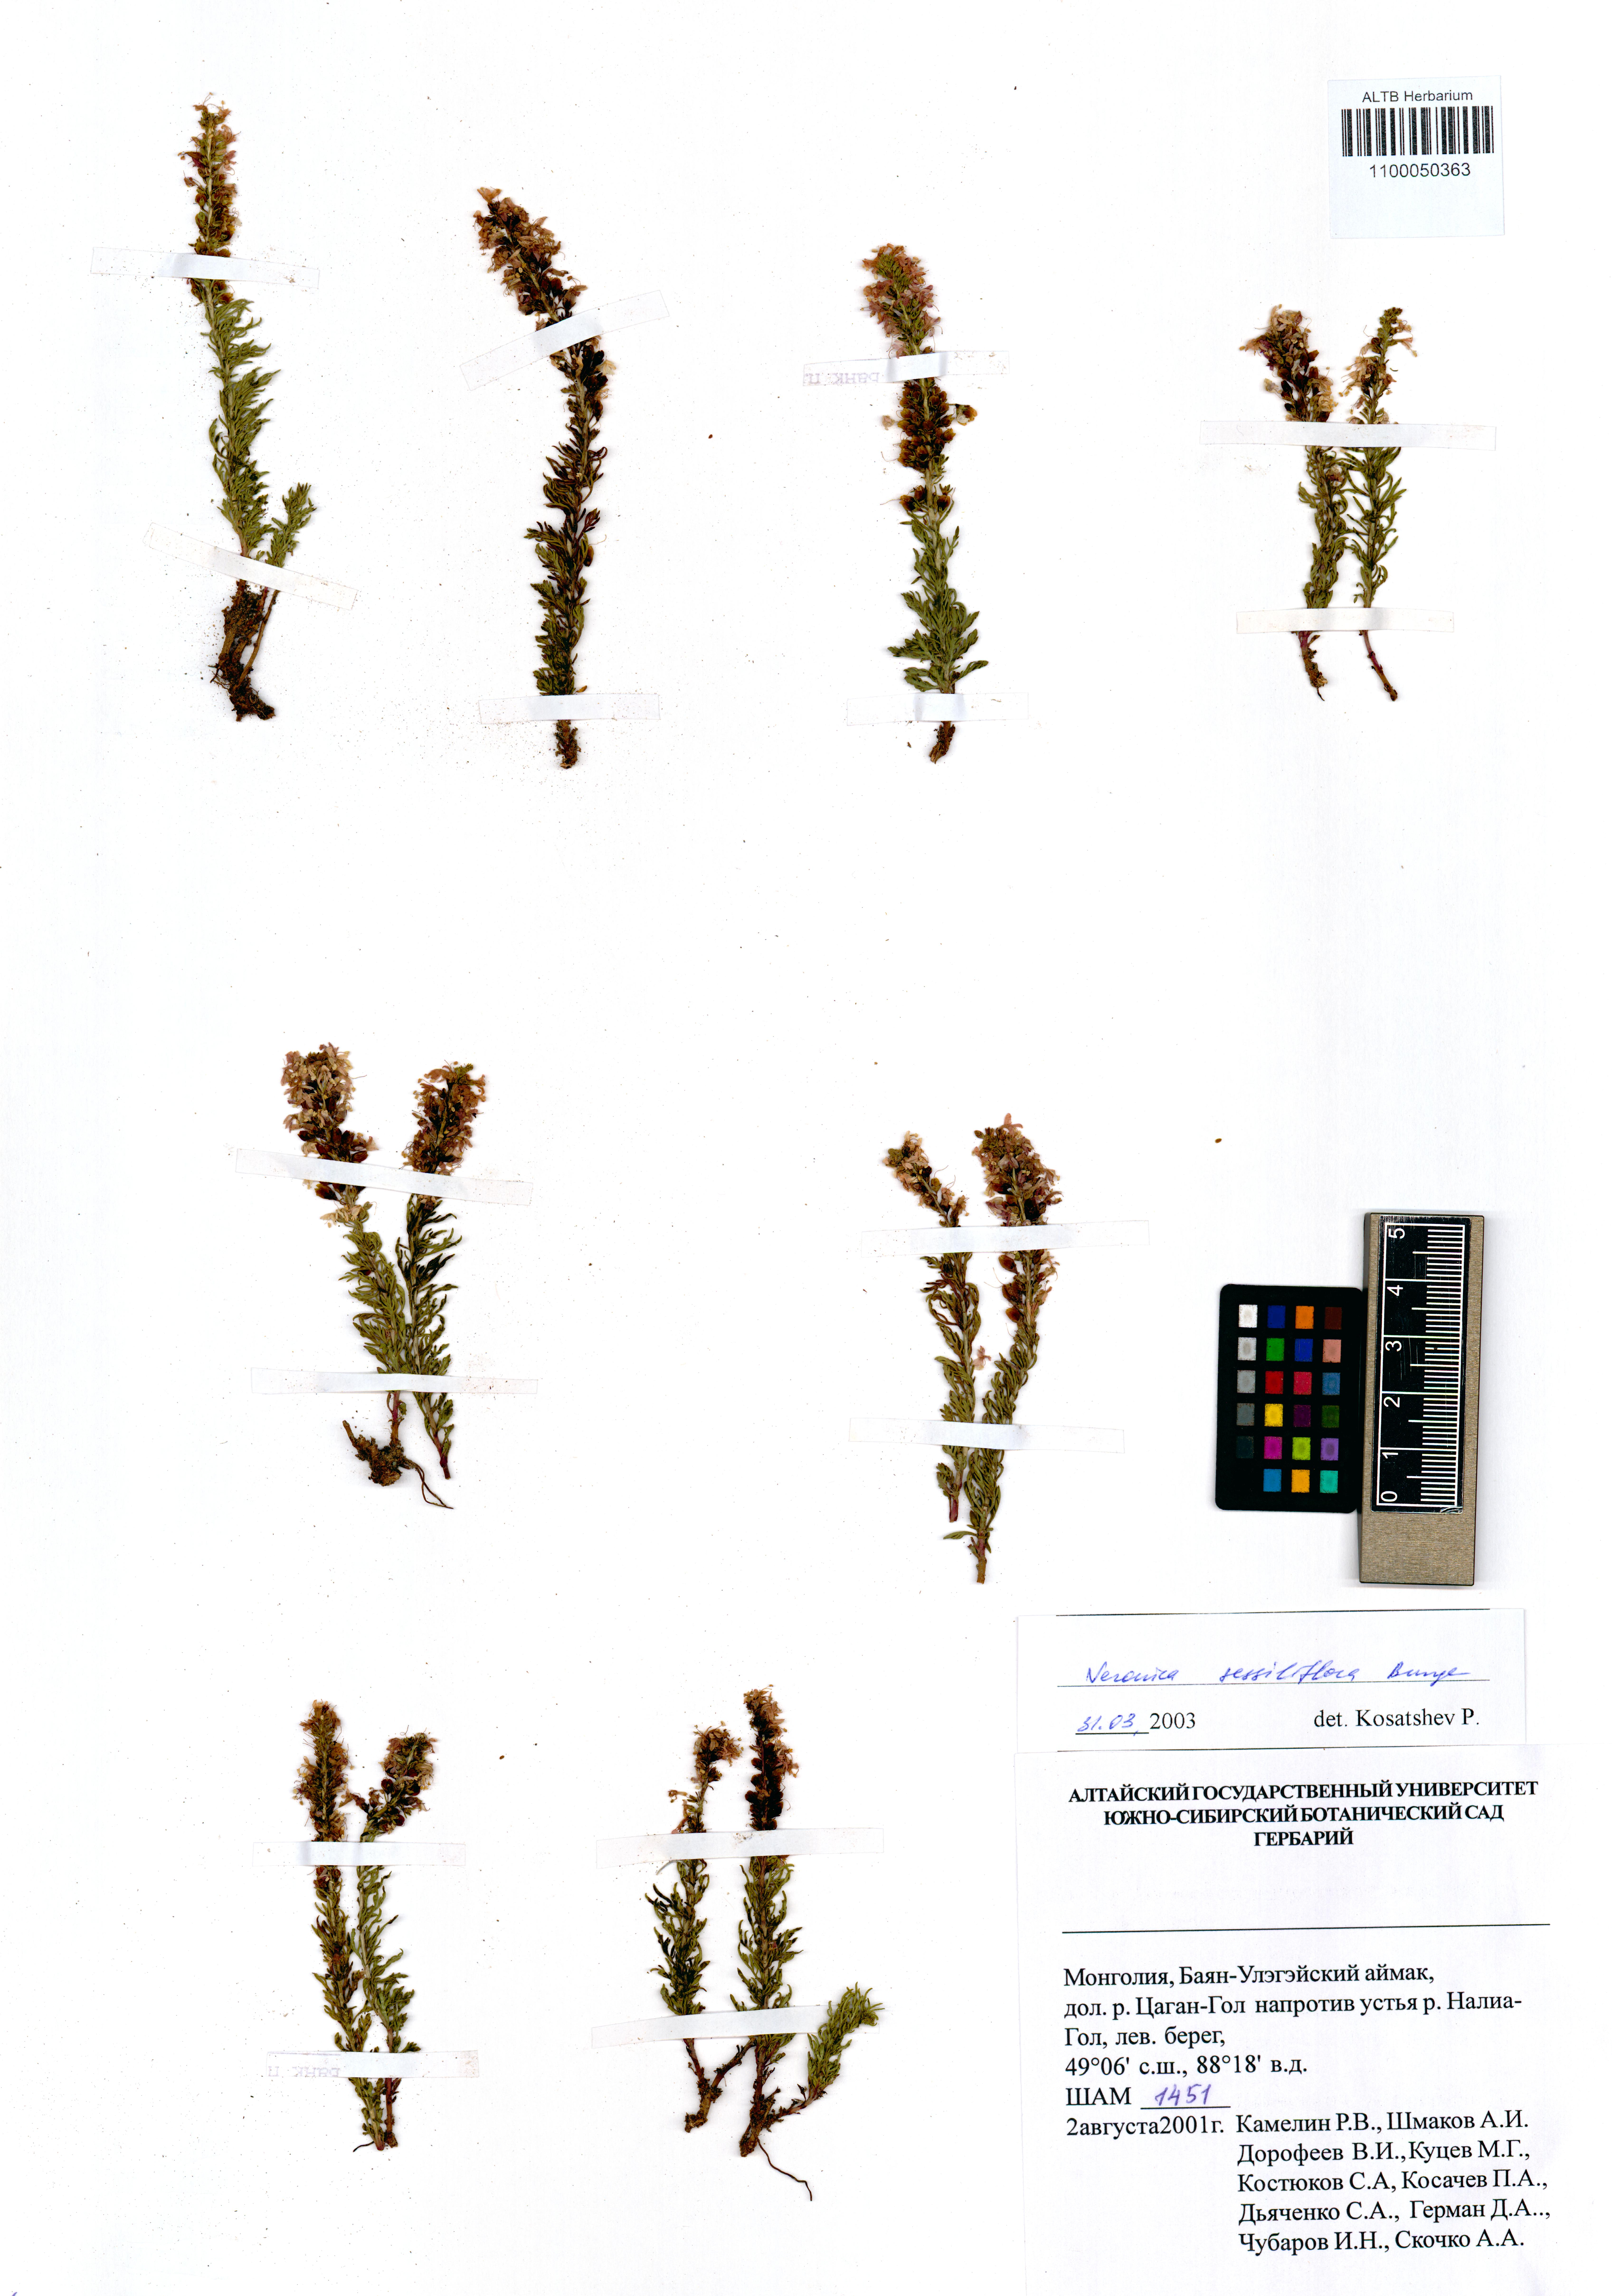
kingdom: Plantae
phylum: Tracheophyta
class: Magnoliopsida
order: Lamiales
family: Plantaginaceae
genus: Veronica
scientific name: Veronica sessiliflora
